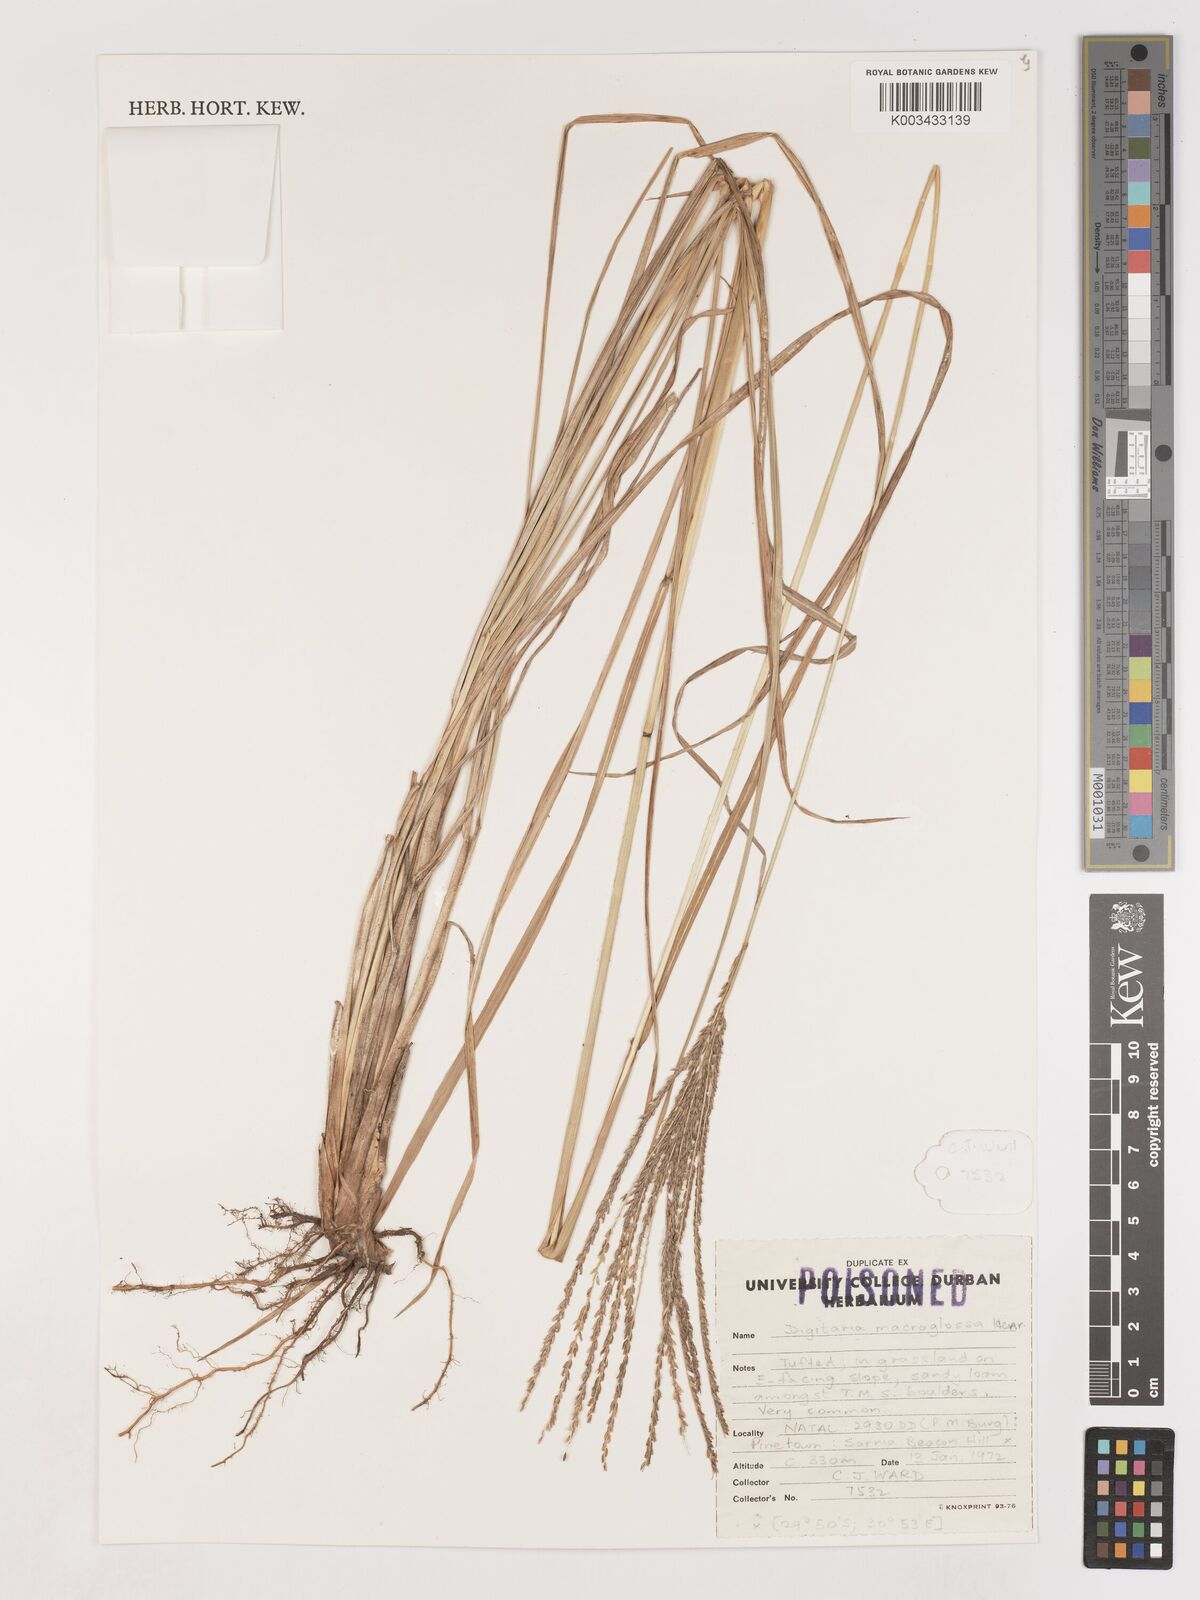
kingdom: Plantae
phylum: Tracheophyta
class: Liliopsida
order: Poales
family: Poaceae
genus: Digitaria
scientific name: Digitaria natalensis
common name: Coast finger grass
